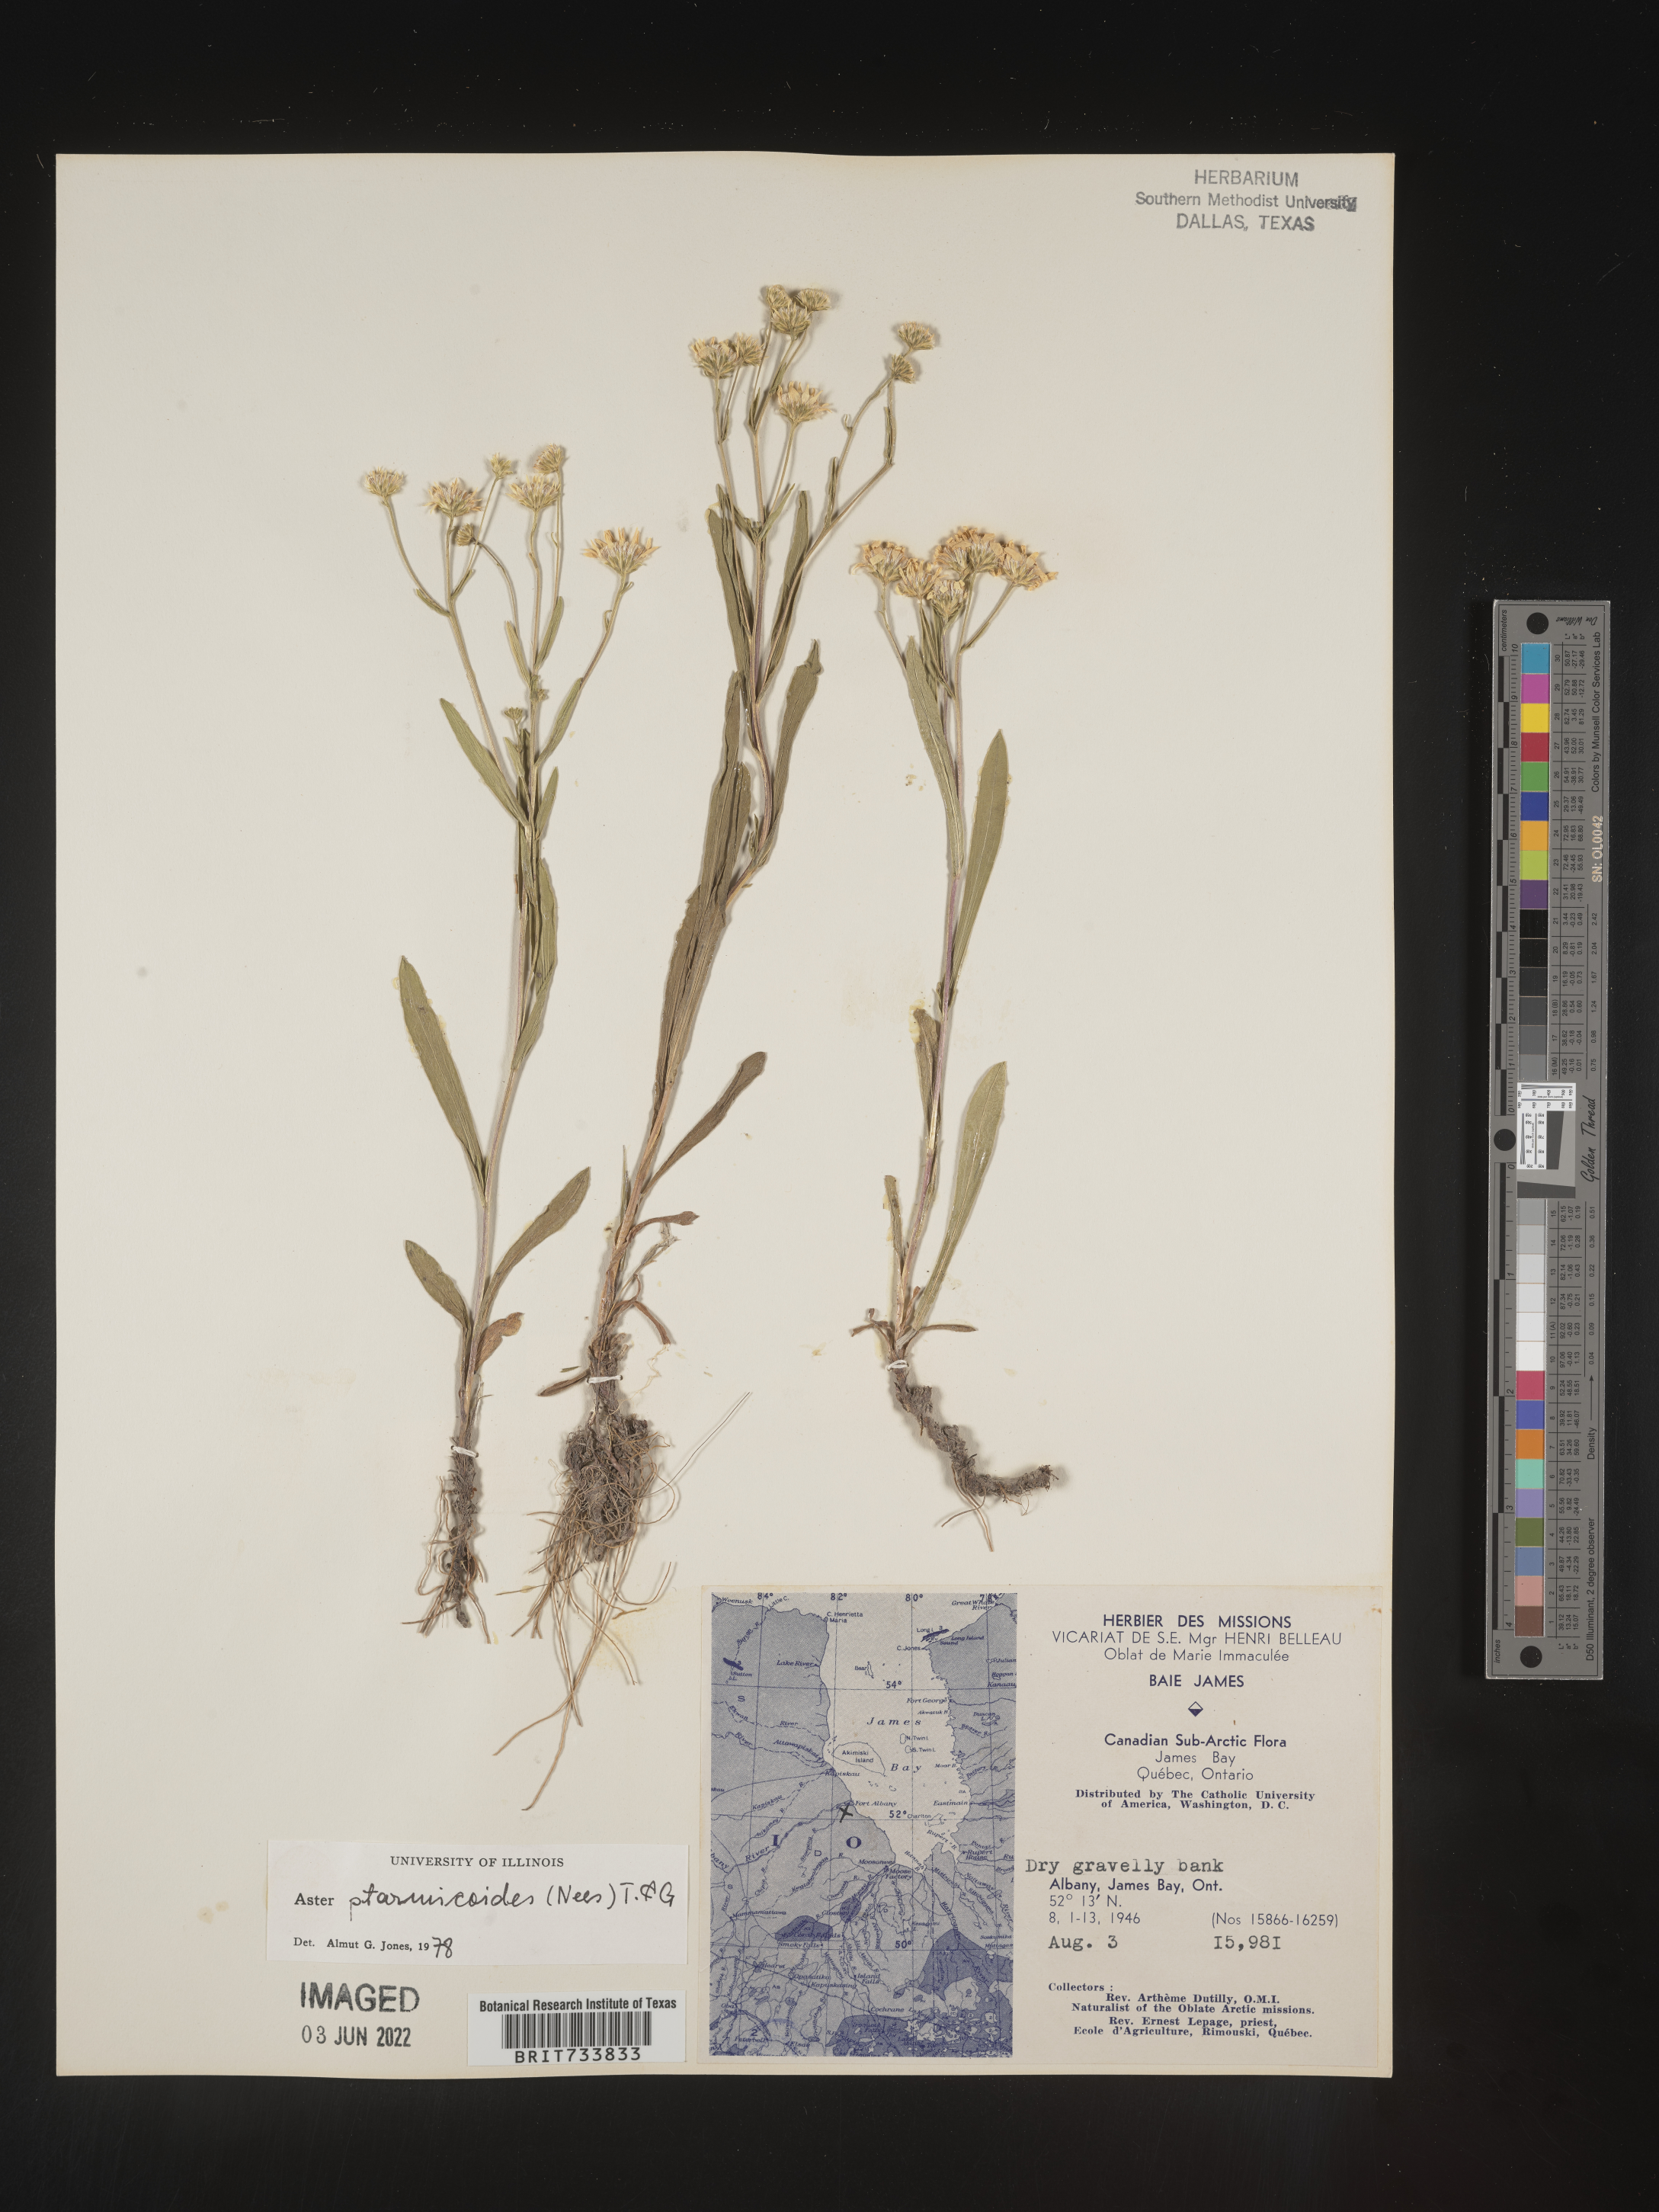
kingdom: Plantae
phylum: Tracheophyta
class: Magnoliopsida
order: Asterales
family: Asteraceae
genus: Solidago
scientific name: Solidago ptarmicoides
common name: White flat-top goldenrod
